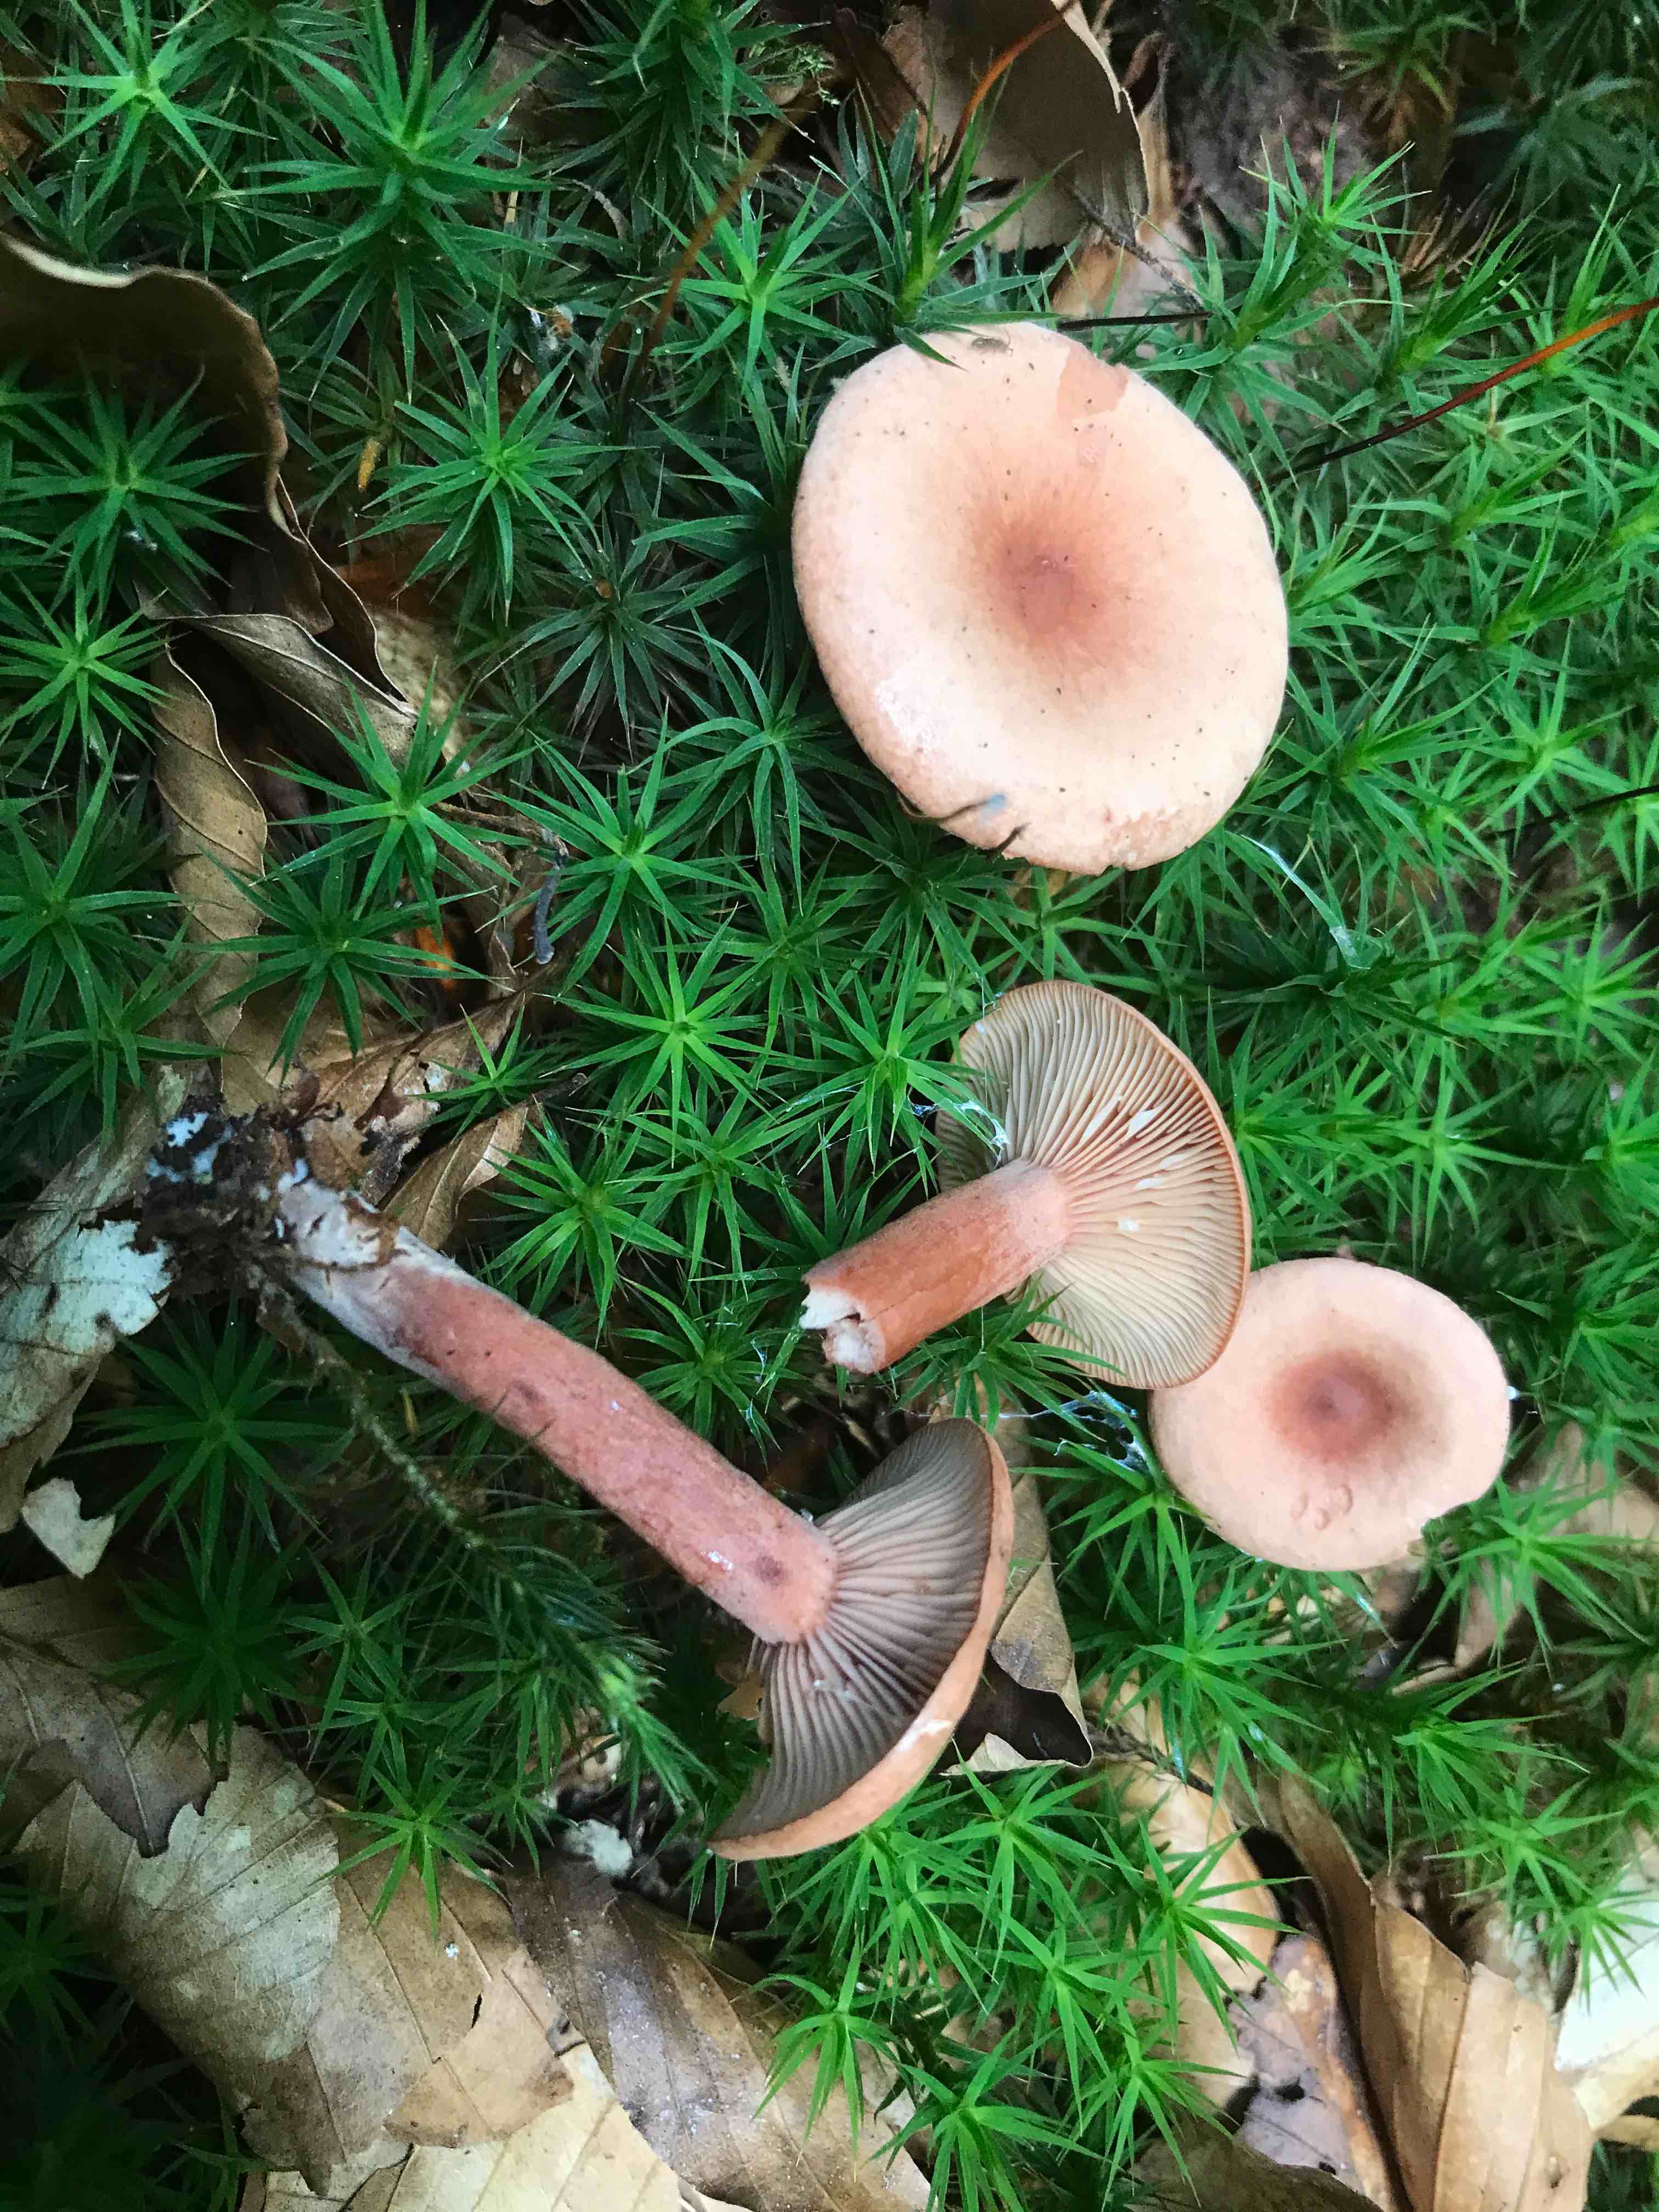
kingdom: Fungi
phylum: Basidiomycota
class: Agaricomycetes
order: Russulales
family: Russulaceae
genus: Lactarius
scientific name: Lactarius subdulcis
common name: sødlig mælkehat
